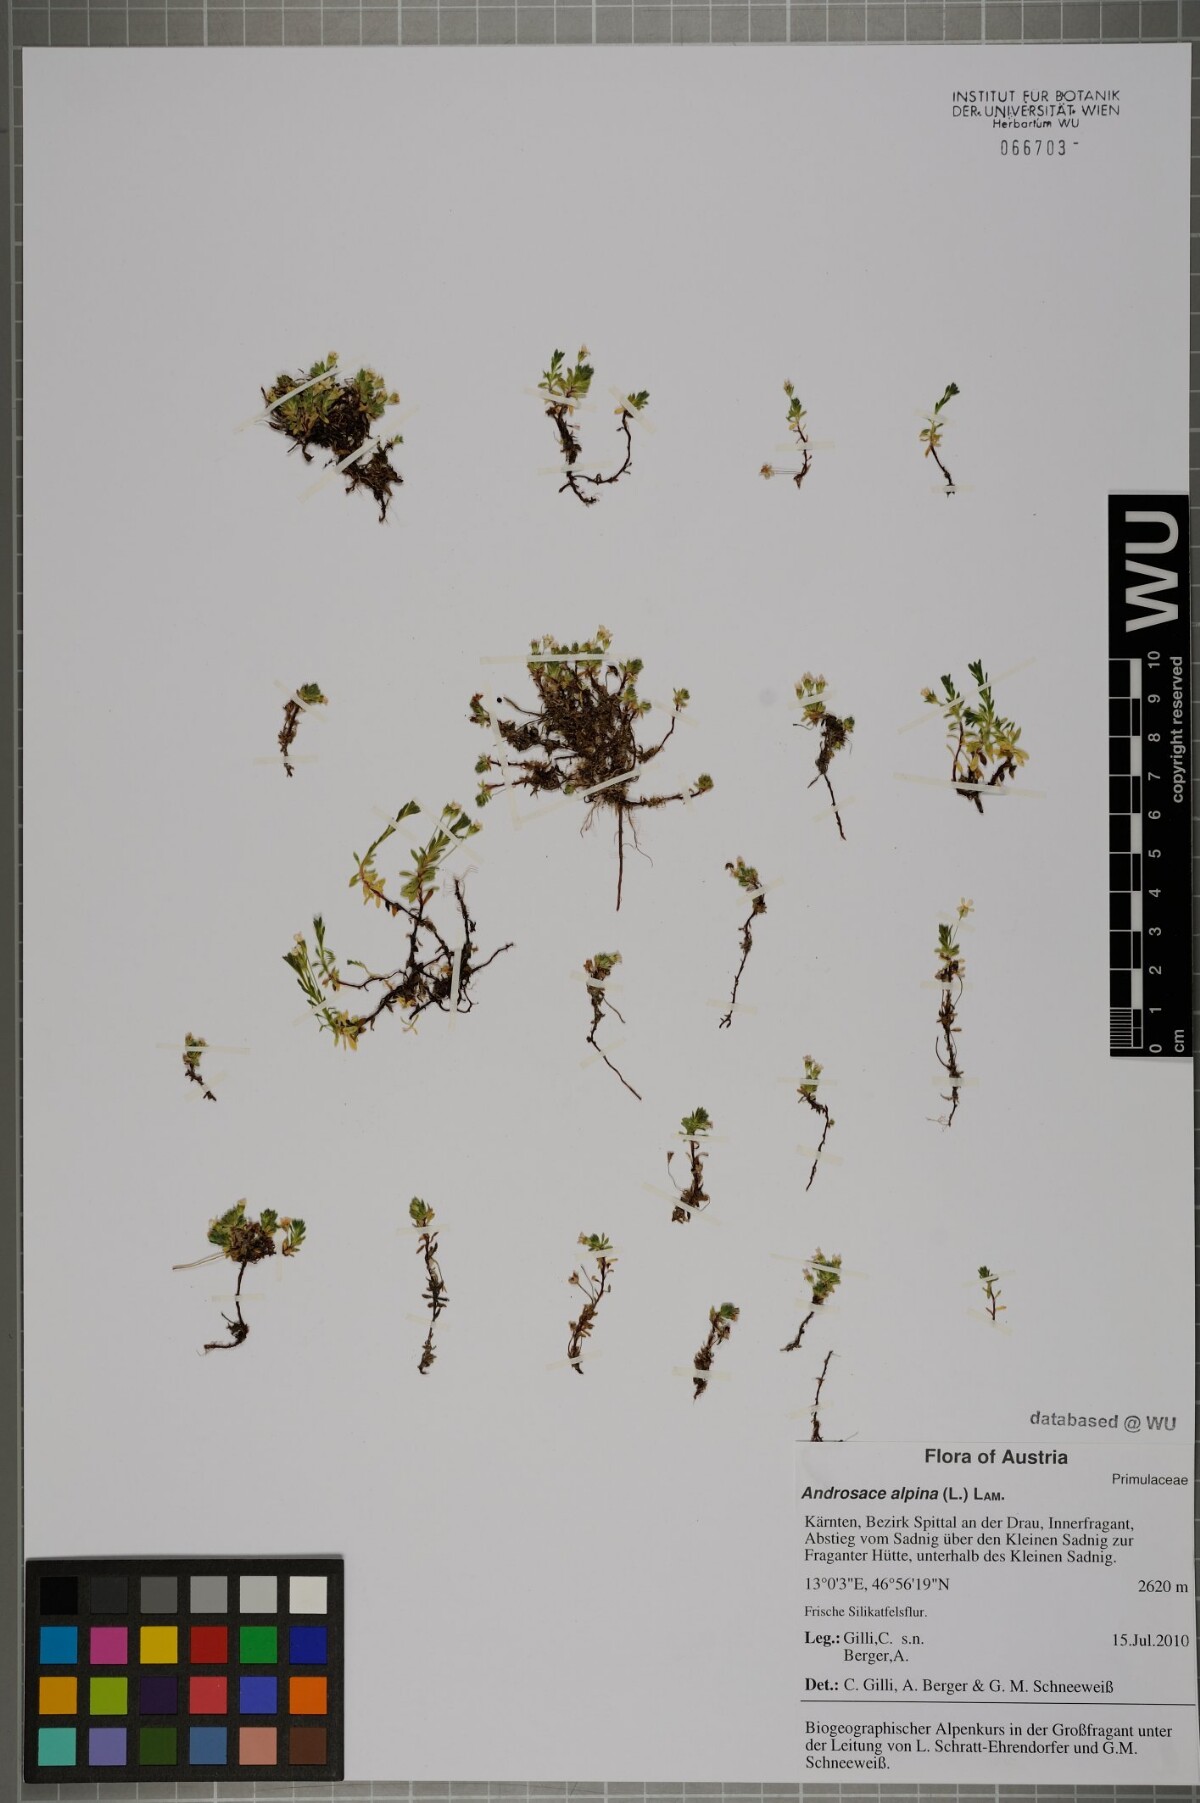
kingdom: Plantae
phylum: Tracheophyta
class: Magnoliopsida
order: Ericales
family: Primulaceae
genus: Androsace
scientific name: Androsace alpina
